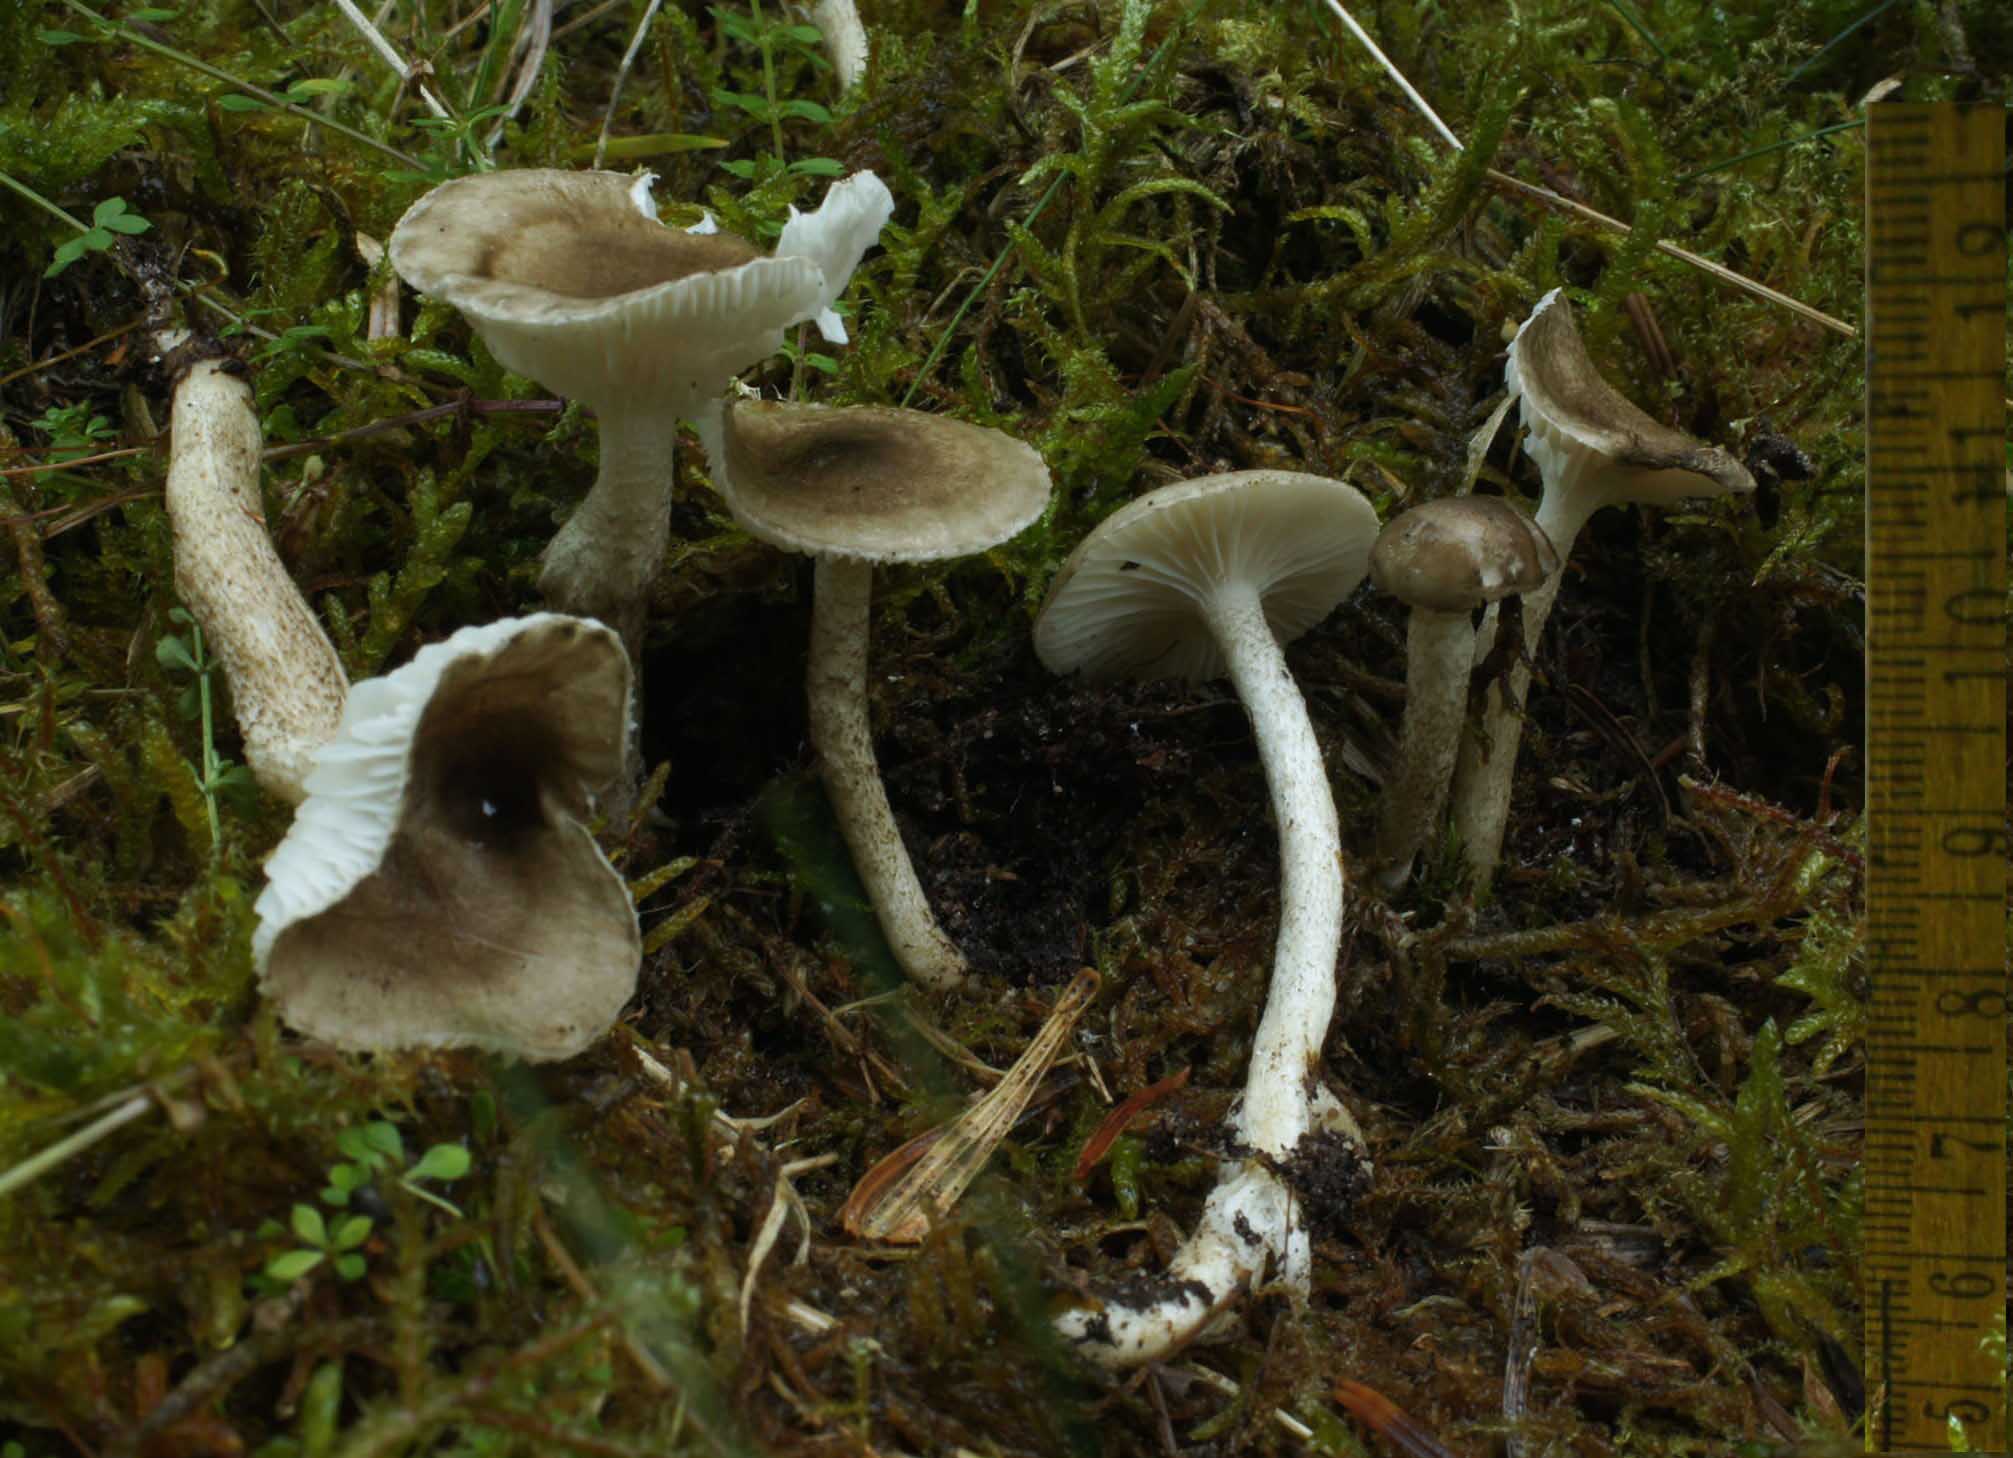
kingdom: Fungi
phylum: Basidiomycota
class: Agaricomycetes
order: Agaricales
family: Hygrophoraceae
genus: Hygrophorus
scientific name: Hygrophorus pustulatus
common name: mørkprikket sneglehat
